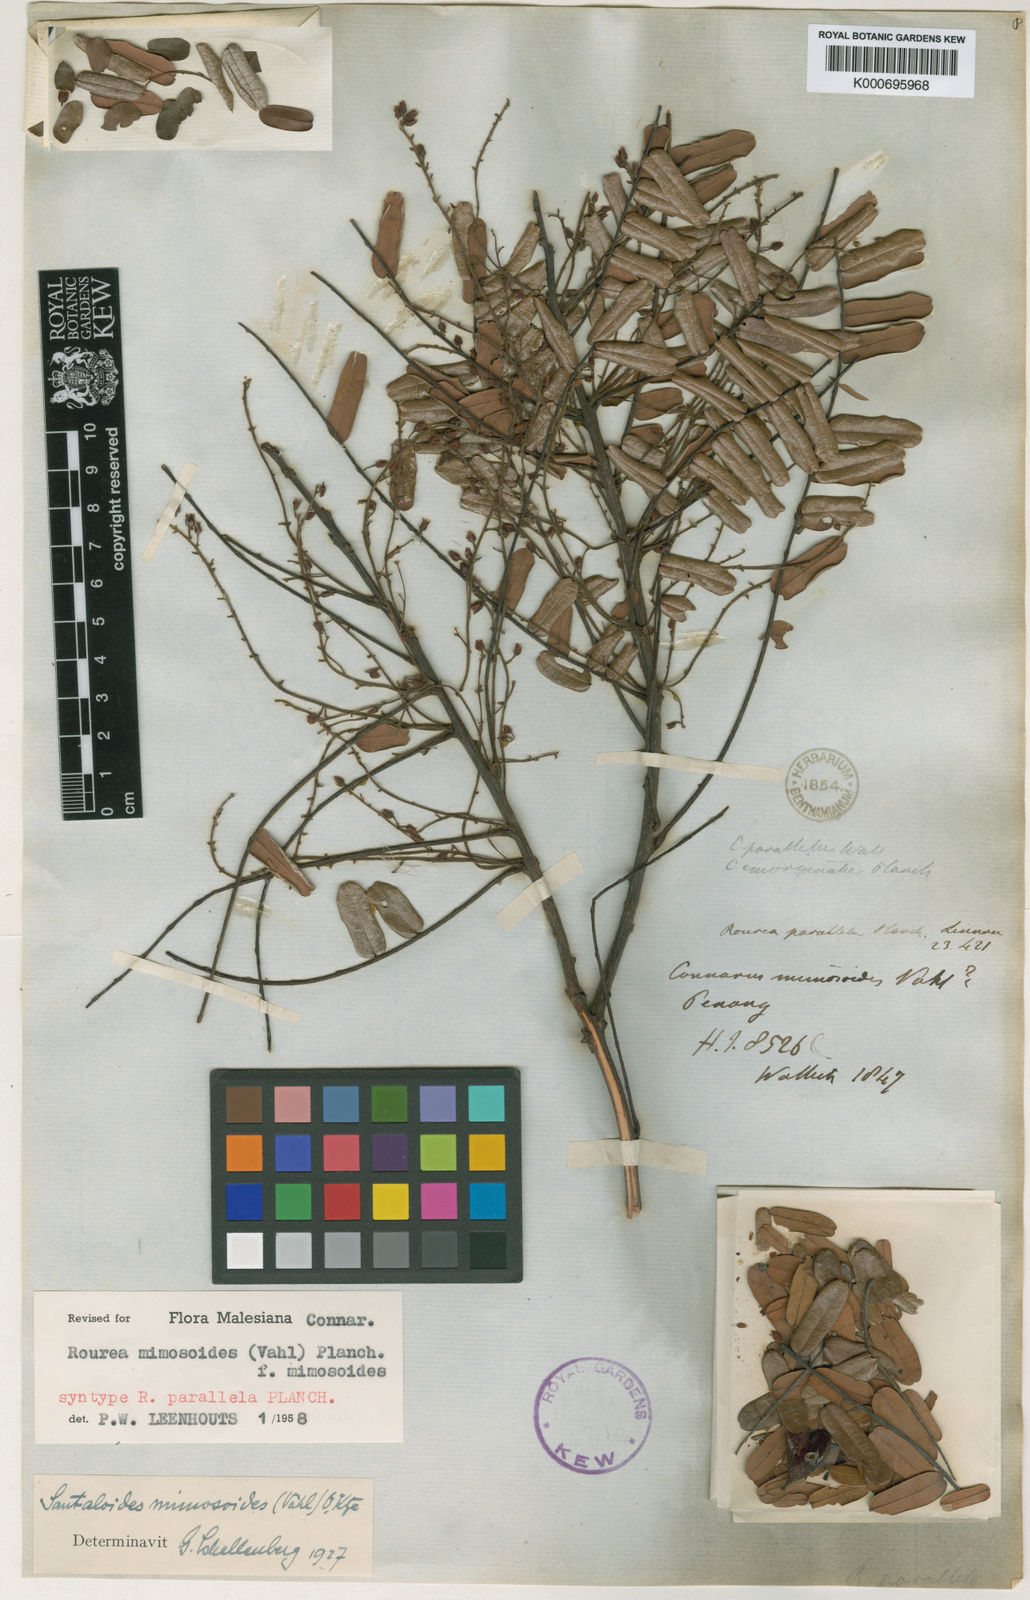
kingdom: Plantae
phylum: Tracheophyta
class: Magnoliopsida
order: Oxalidales
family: Connaraceae
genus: Rourea
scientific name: Rourea mimosoides
